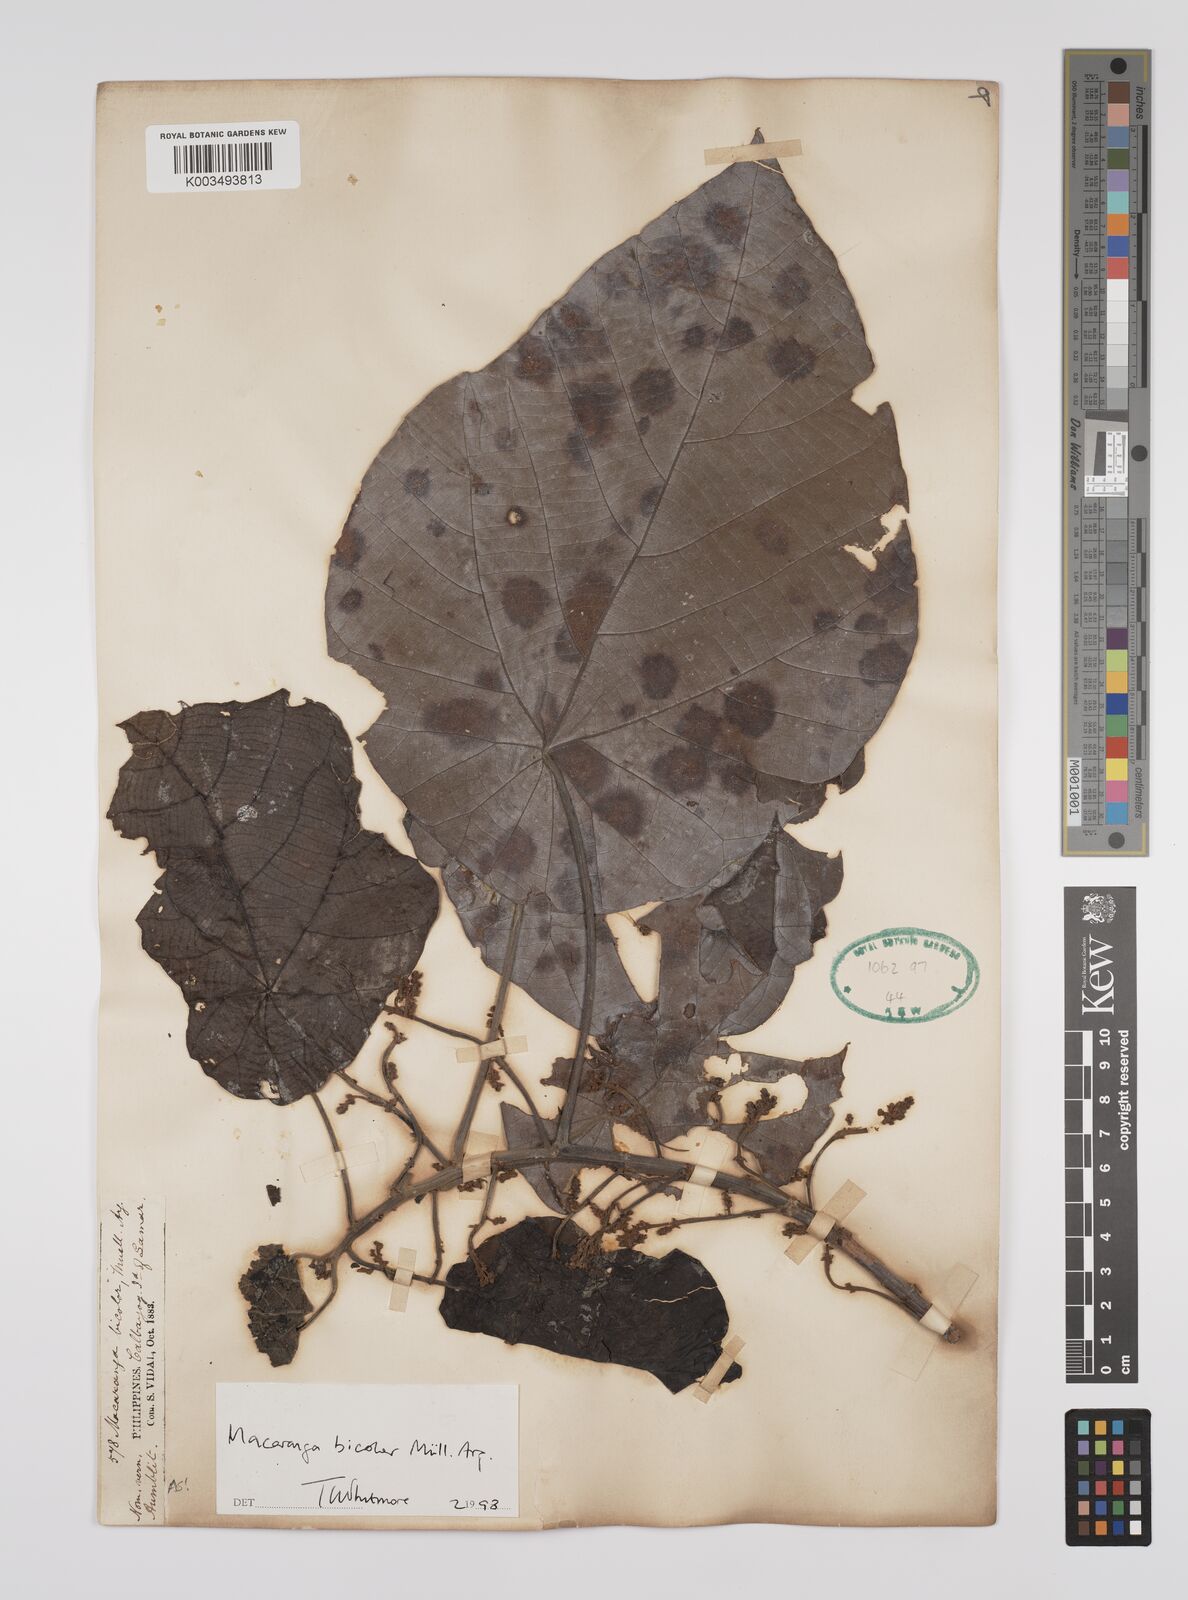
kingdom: Plantae
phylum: Tracheophyta
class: Magnoliopsida
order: Malpighiales
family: Euphorbiaceae
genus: Macaranga
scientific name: Macaranga bicolor
